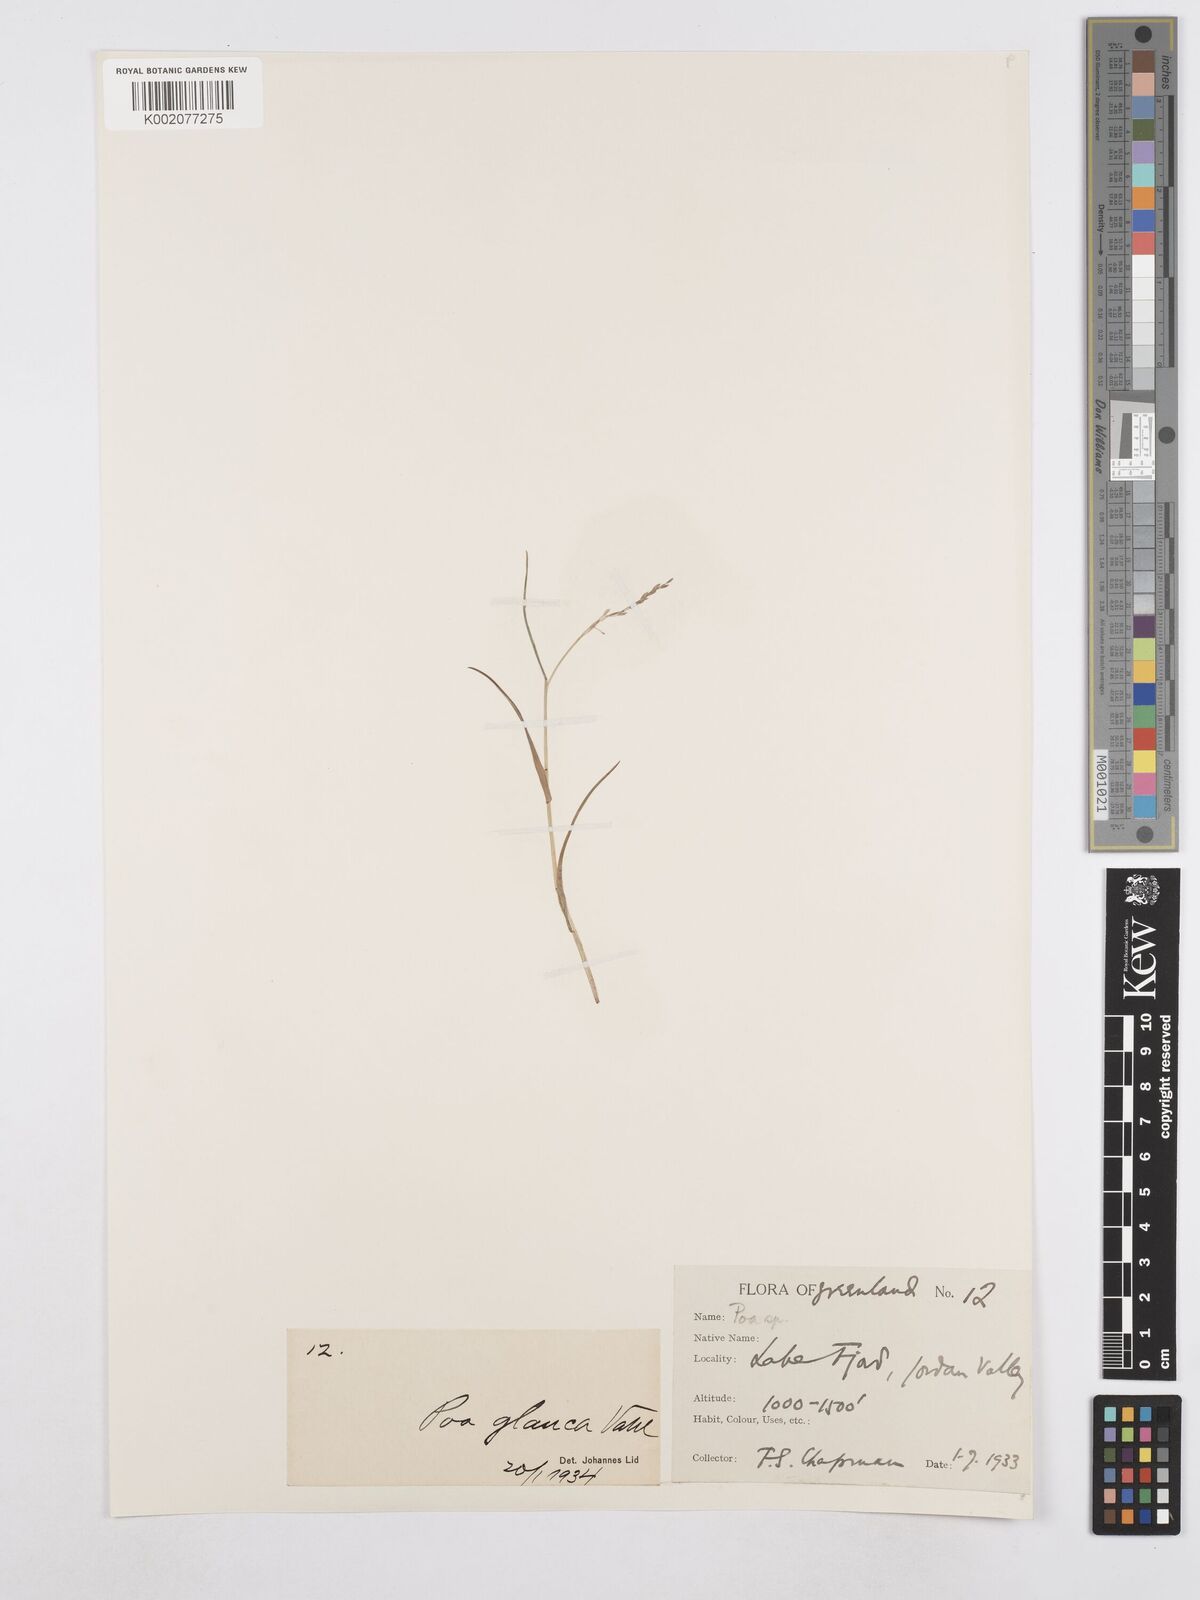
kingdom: Plantae
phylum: Tracheophyta
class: Liliopsida
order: Poales
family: Poaceae
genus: Poa
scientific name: Poa glauca
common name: Glaucous bluegrass
